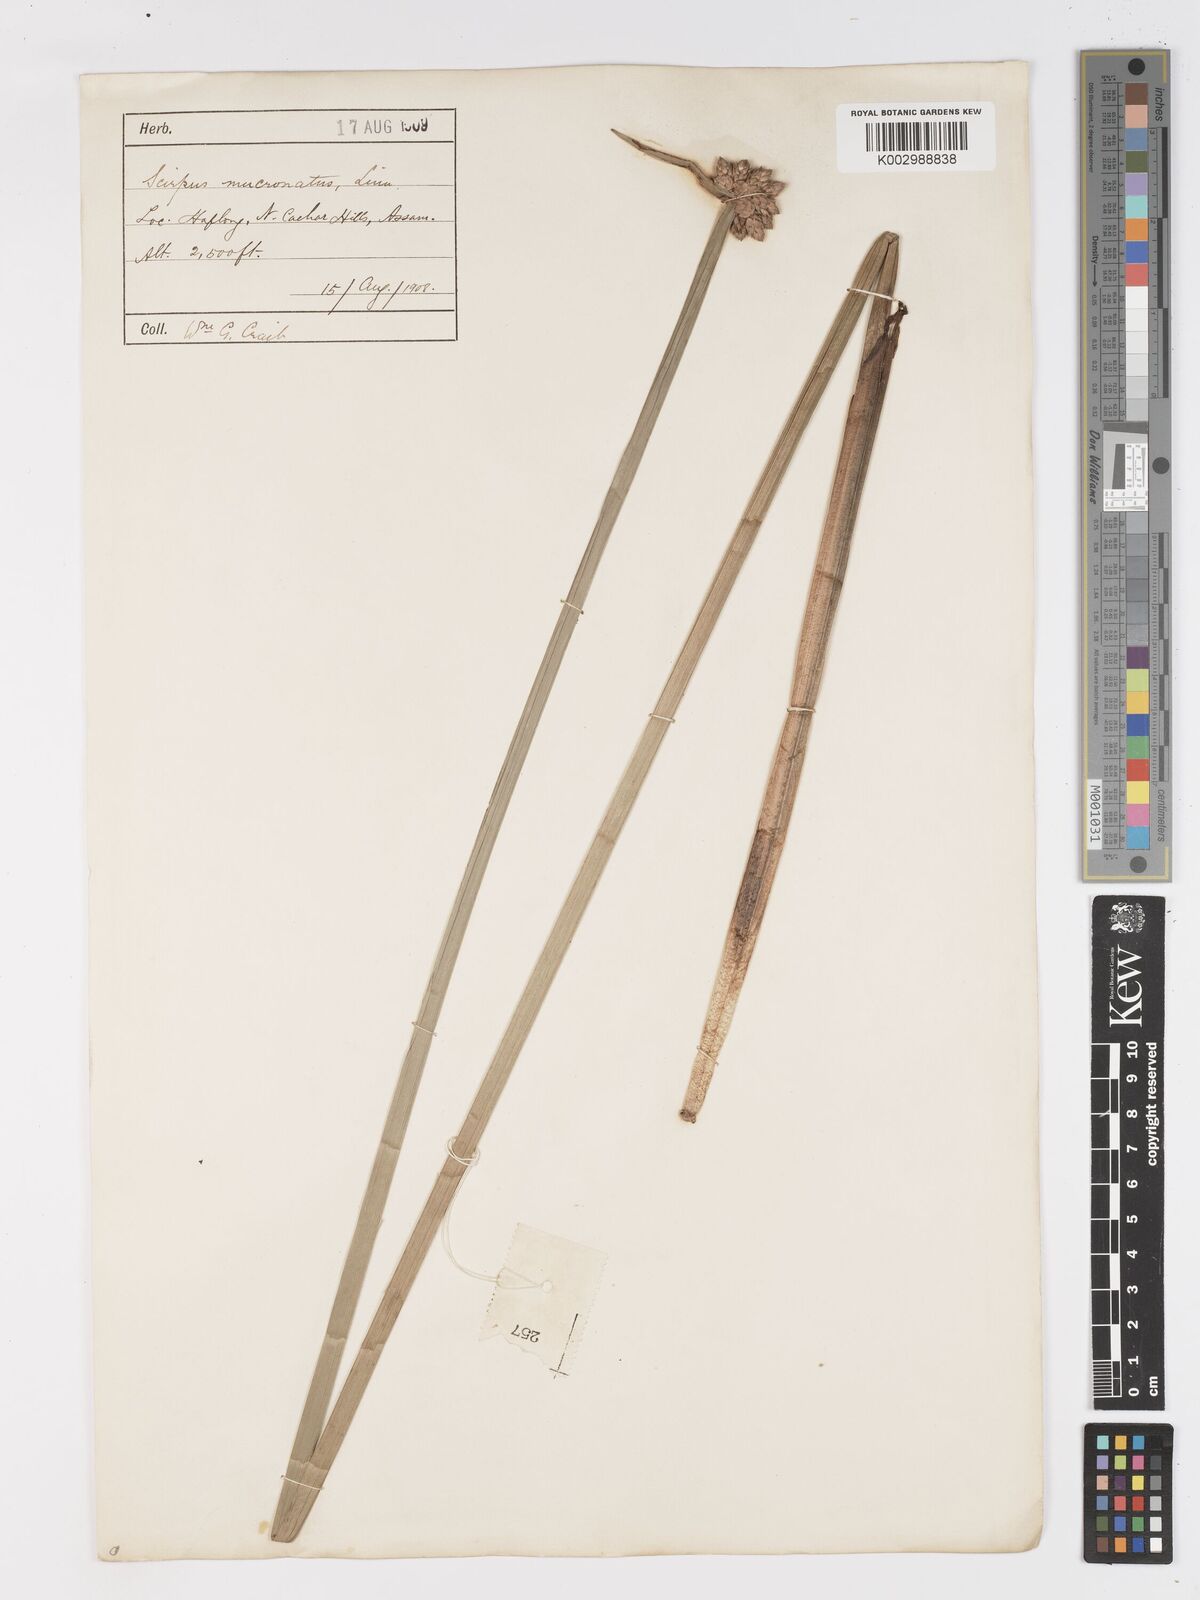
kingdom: Plantae
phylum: Tracheophyta
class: Liliopsida
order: Poales
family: Cyperaceae
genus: Schoenoplectiella
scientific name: Schoenoplectiella mucronata
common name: Bog bulrush
